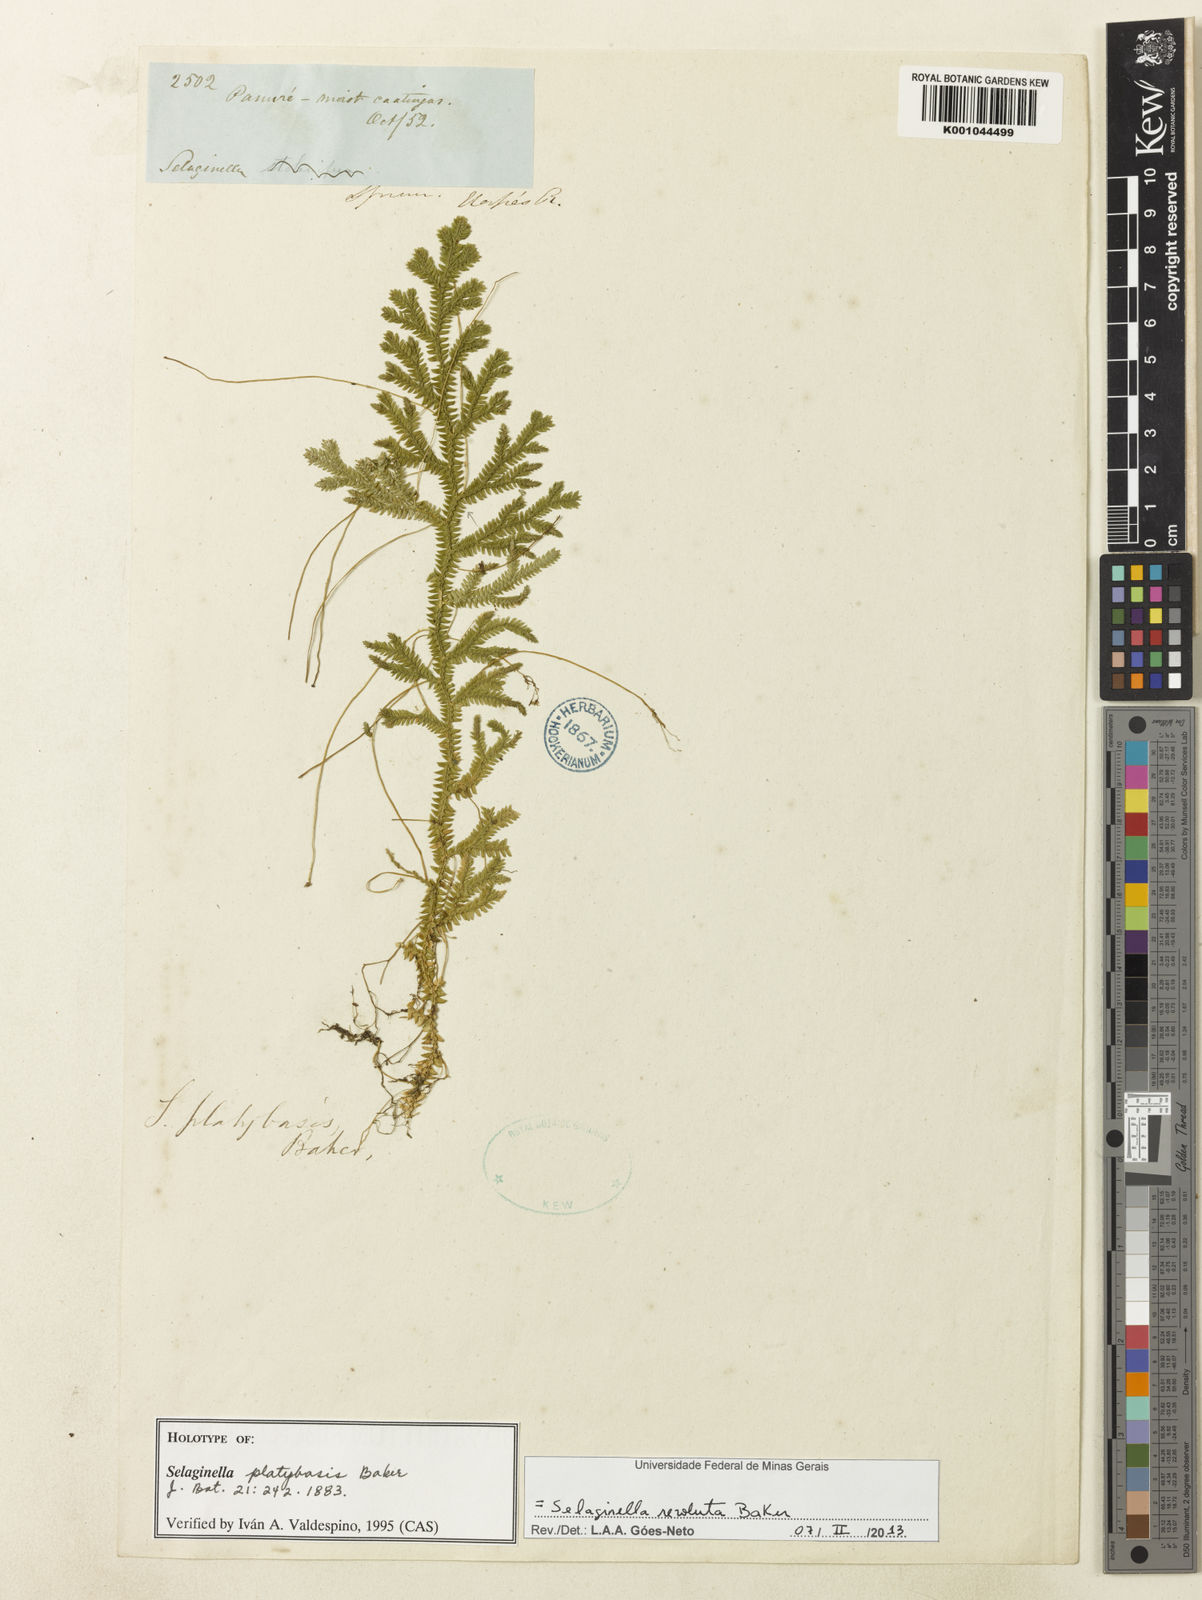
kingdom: Plantae
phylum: Tracheophyta
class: Lycopodiopsida
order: Selaginellales
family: Selaginellaceae
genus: Selaginella
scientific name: Selaginella revoluta
